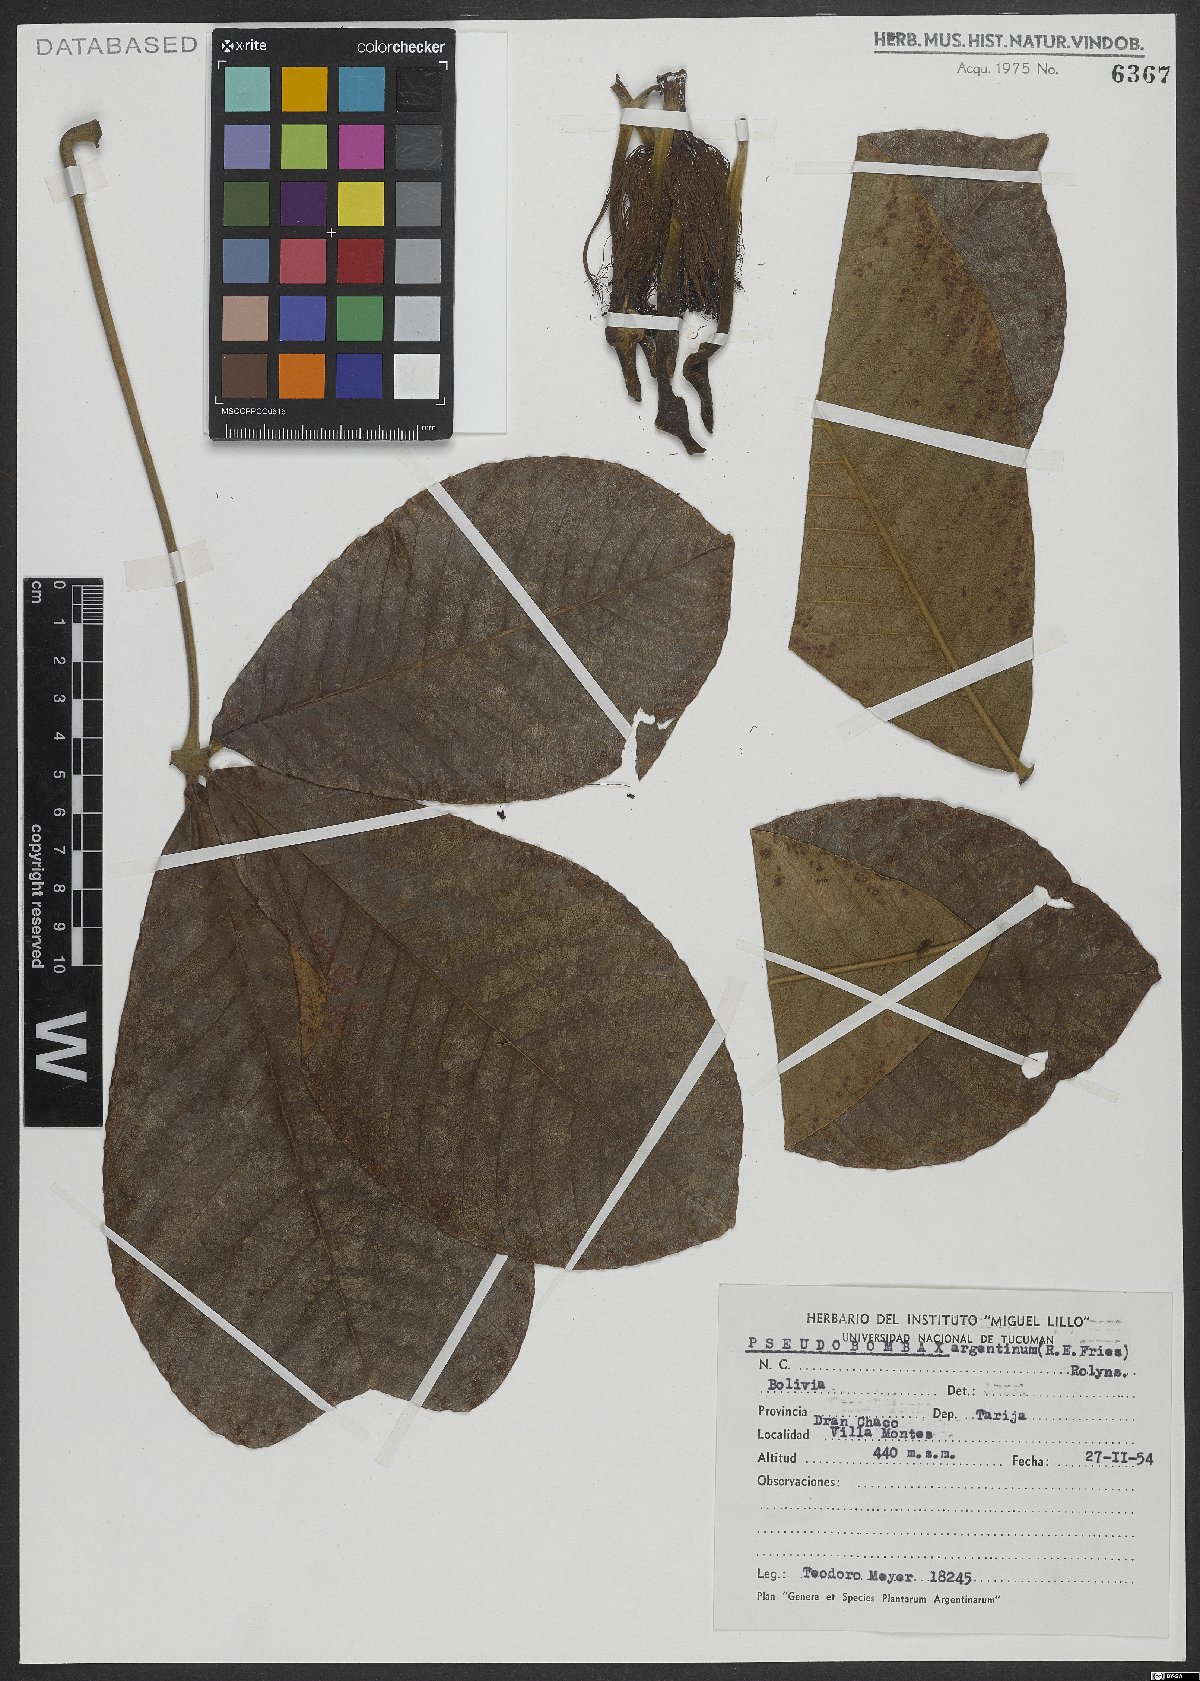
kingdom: Plantae
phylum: Tracheophyta
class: Magnoliopsida
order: Malvales
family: Malvaceae
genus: Pseudobombax
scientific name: Pseudobombax argentinum
